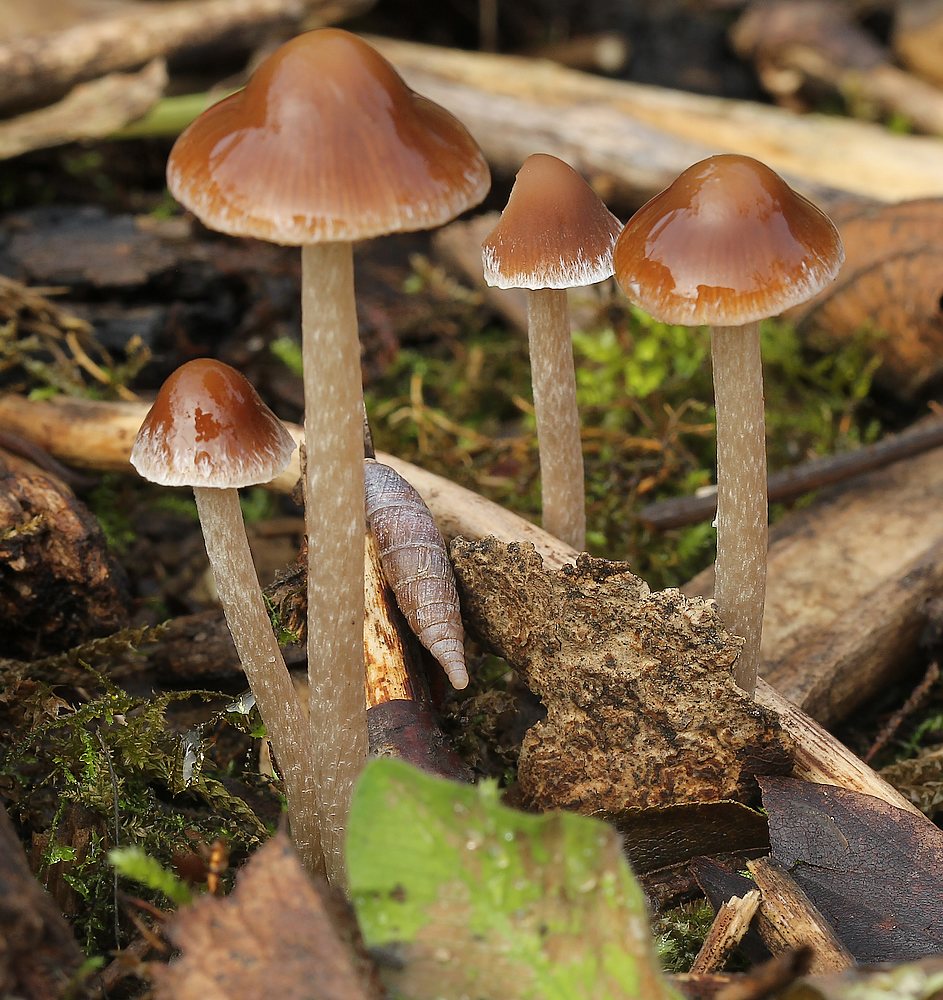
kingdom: Fungi
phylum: Basidiomycota
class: Agaricomycetes
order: Agaricales
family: Psathyrellaceae
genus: Psathyrella
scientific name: Psathyrella
